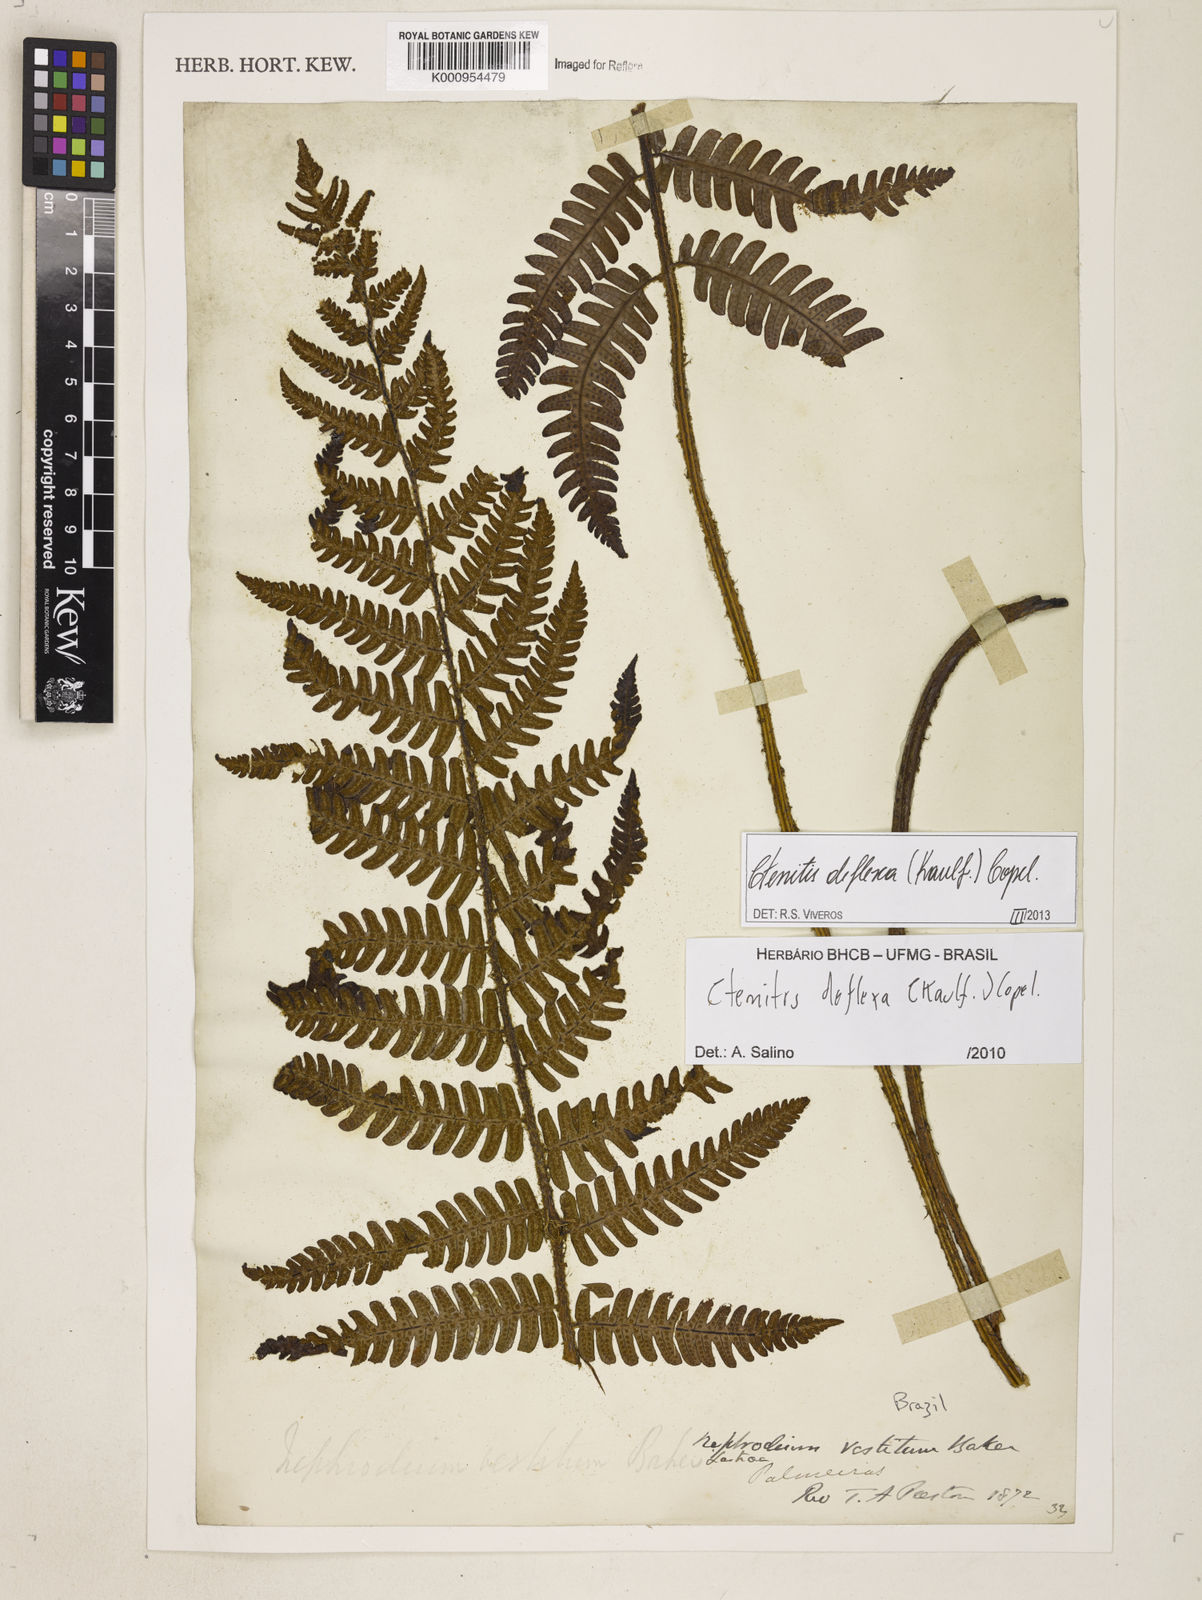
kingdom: Plantae
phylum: Tracheophyta
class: Polypodiopsida
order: Polypodiales
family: Dryopteridaceae
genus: Ctenitis
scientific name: Ctenitis deflexa
